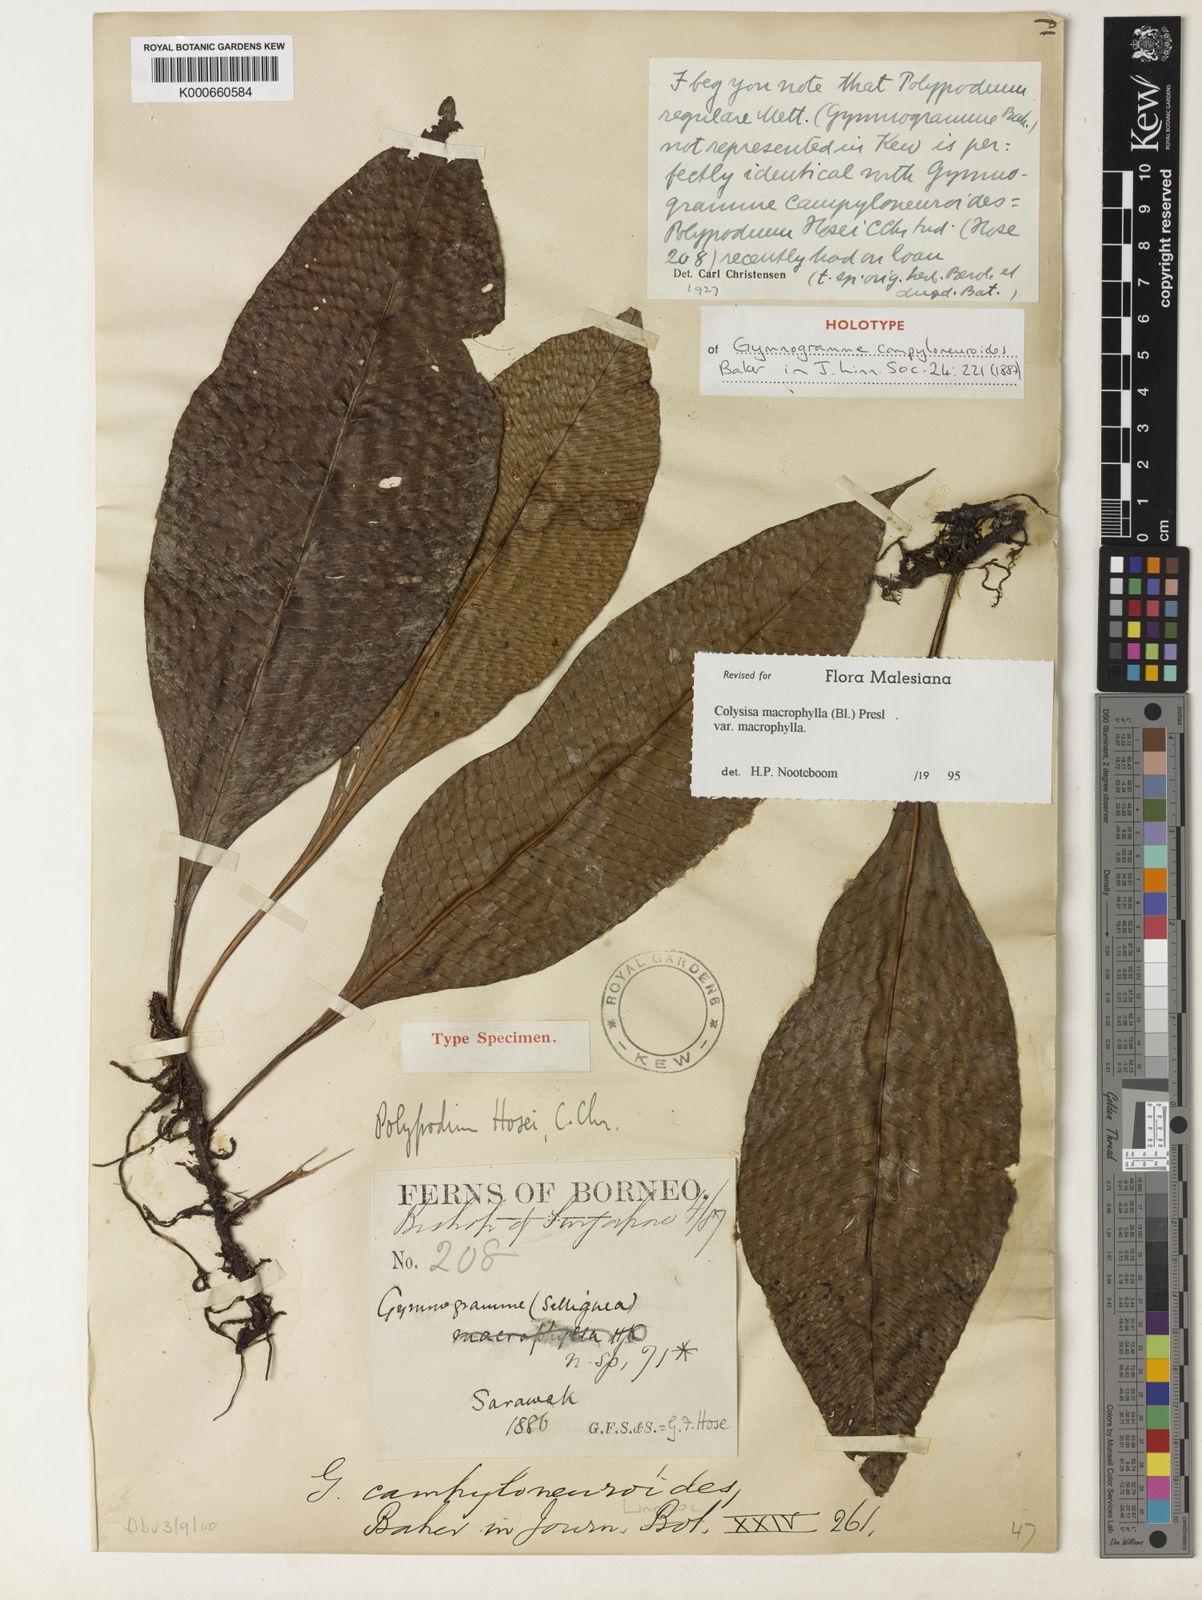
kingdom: Plantae
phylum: Tracheophyta
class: Polypodiopsida
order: Polypodiales
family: Polypodiaceae
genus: Leptochilus
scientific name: Leptochilus macrophyllus
